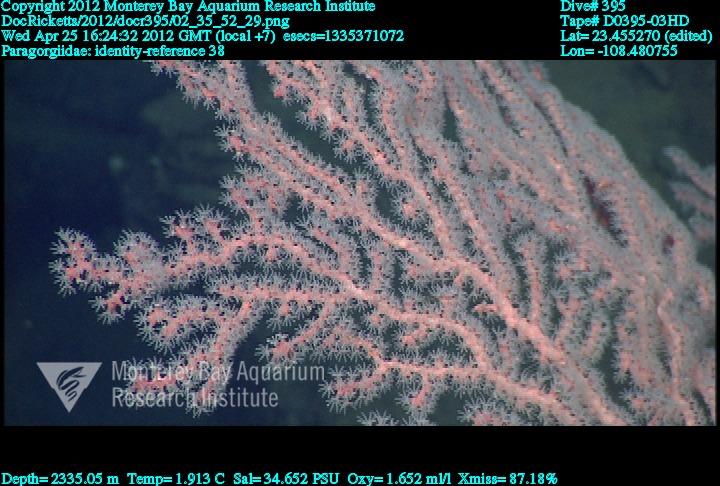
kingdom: Animalia
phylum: Cnidaria
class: Anthozoa
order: Scleralcyonacea
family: Coralliidae
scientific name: Coralliidae
